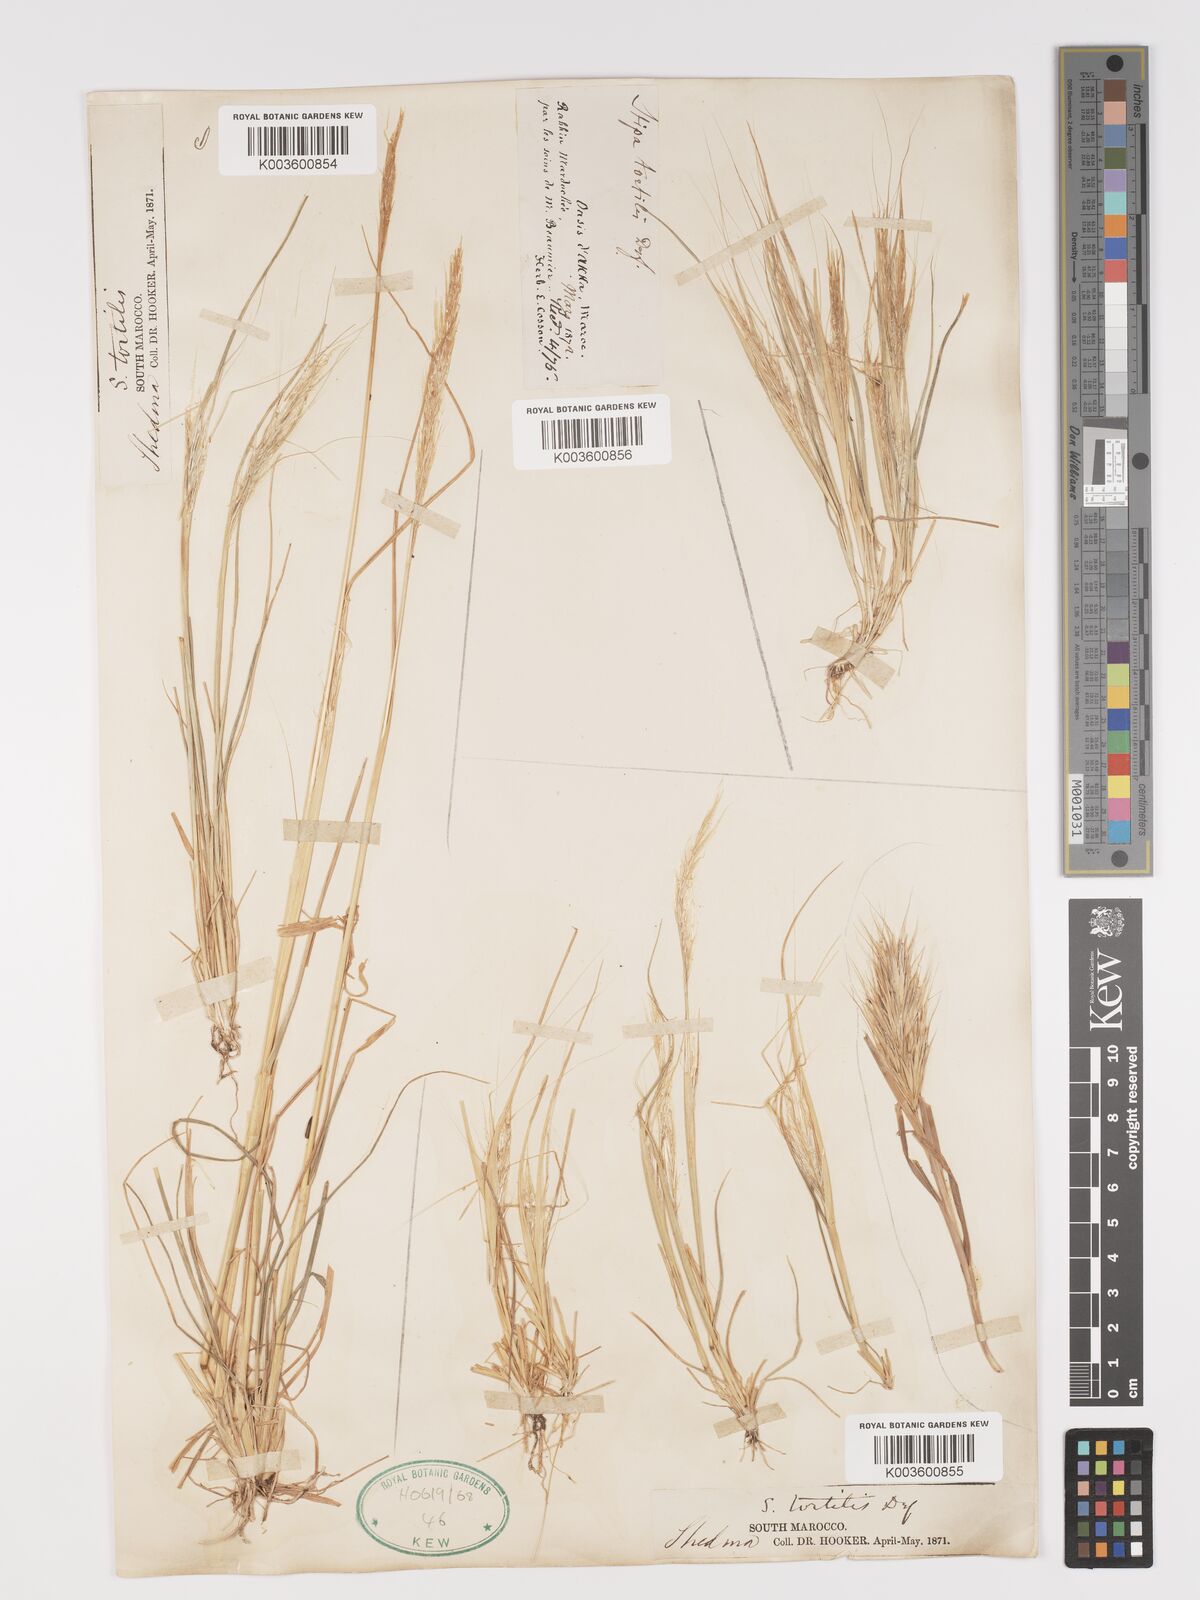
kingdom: Plantae
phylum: Tracheophyta
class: Liliopsida
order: Poales
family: Poaceae
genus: Stipellula
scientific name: Stipellula capensis
